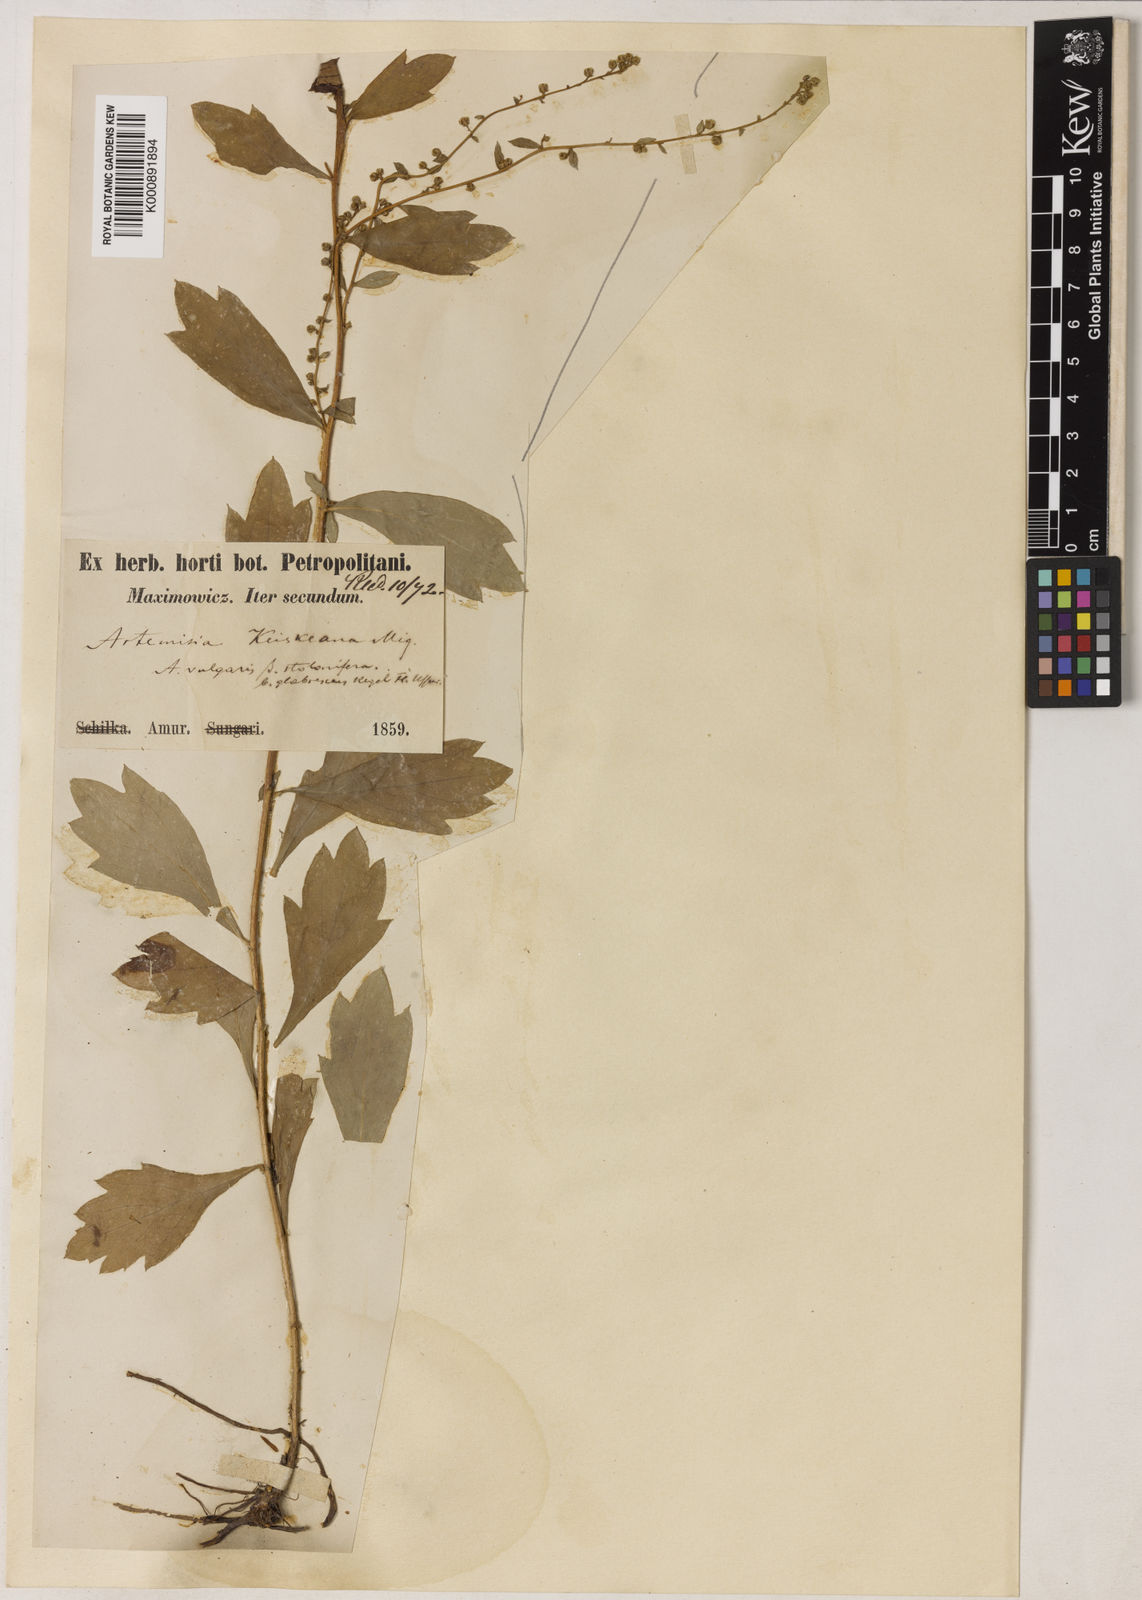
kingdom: Plantae
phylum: Tracheophyta
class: Magnoliopsida
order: Asterales
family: Asteraceae
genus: Artemisia
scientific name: Artemisia stolonifera
